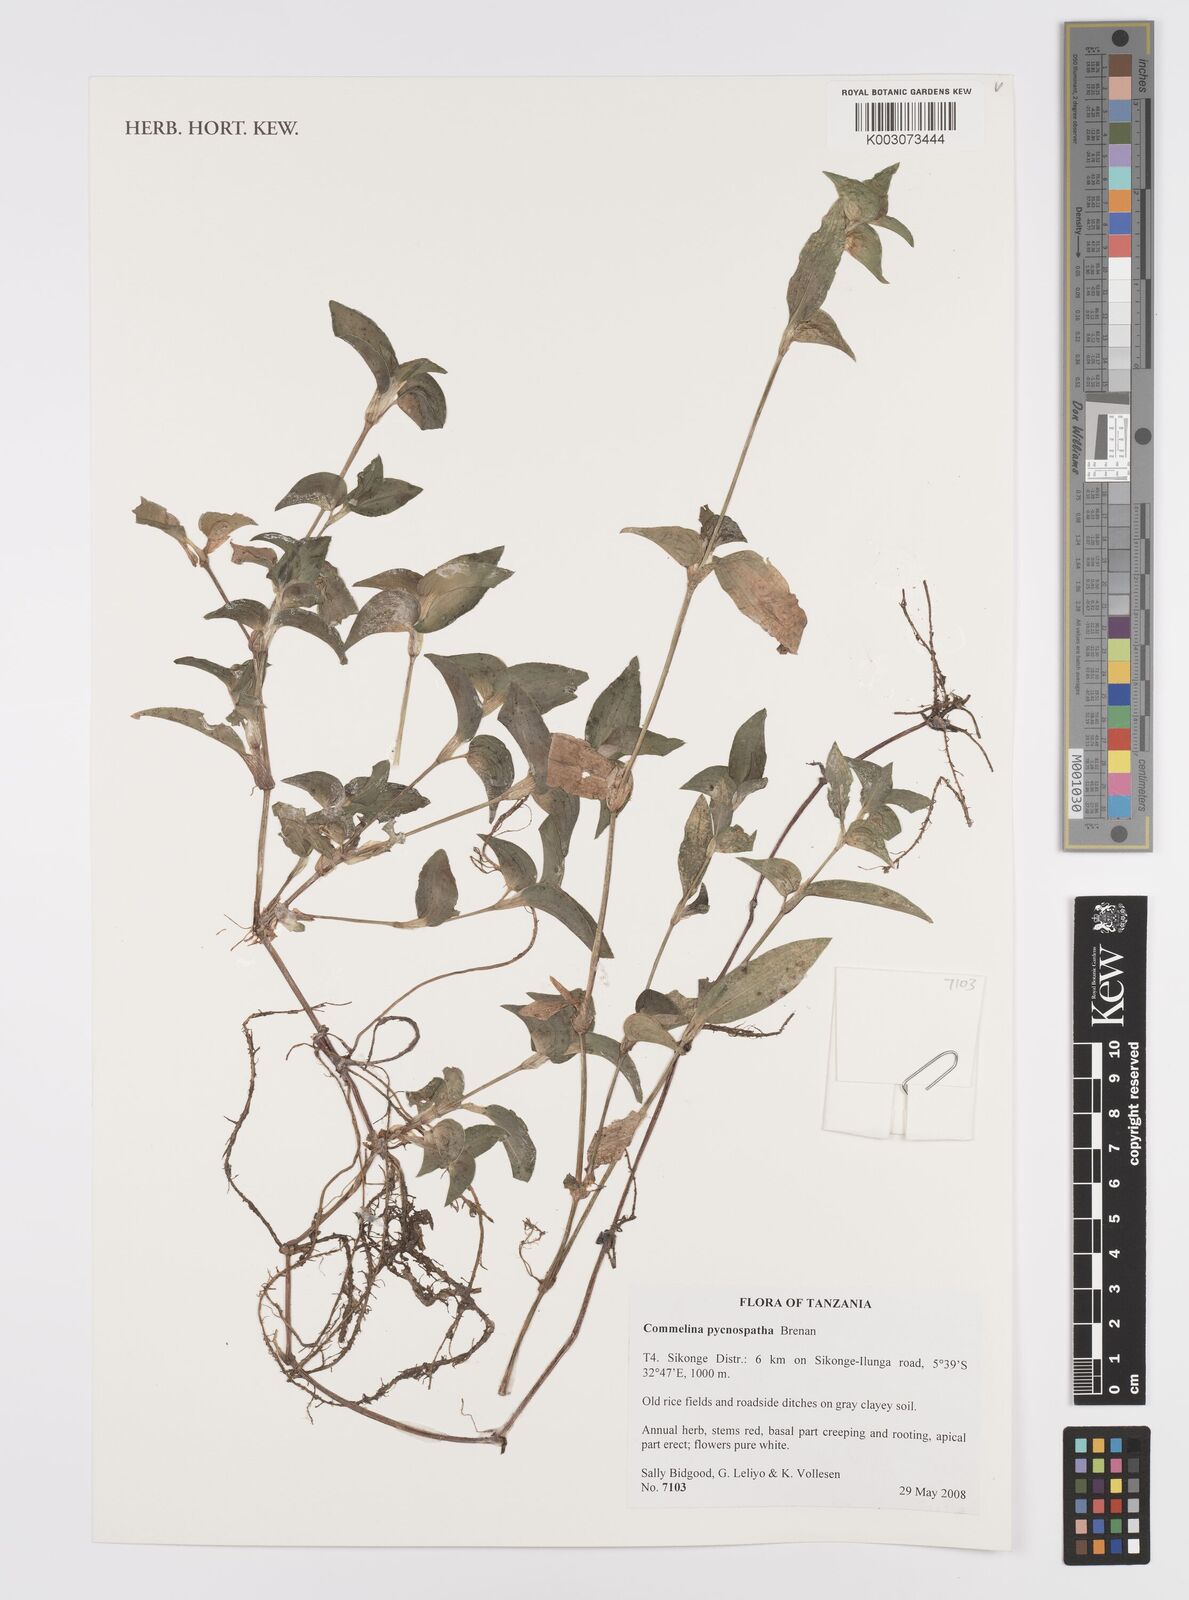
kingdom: Plantae
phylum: Tracheophyta
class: Liliopsida
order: Commelinales
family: Commelinaceae
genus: Commelina
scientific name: Commelina pycnospatha
